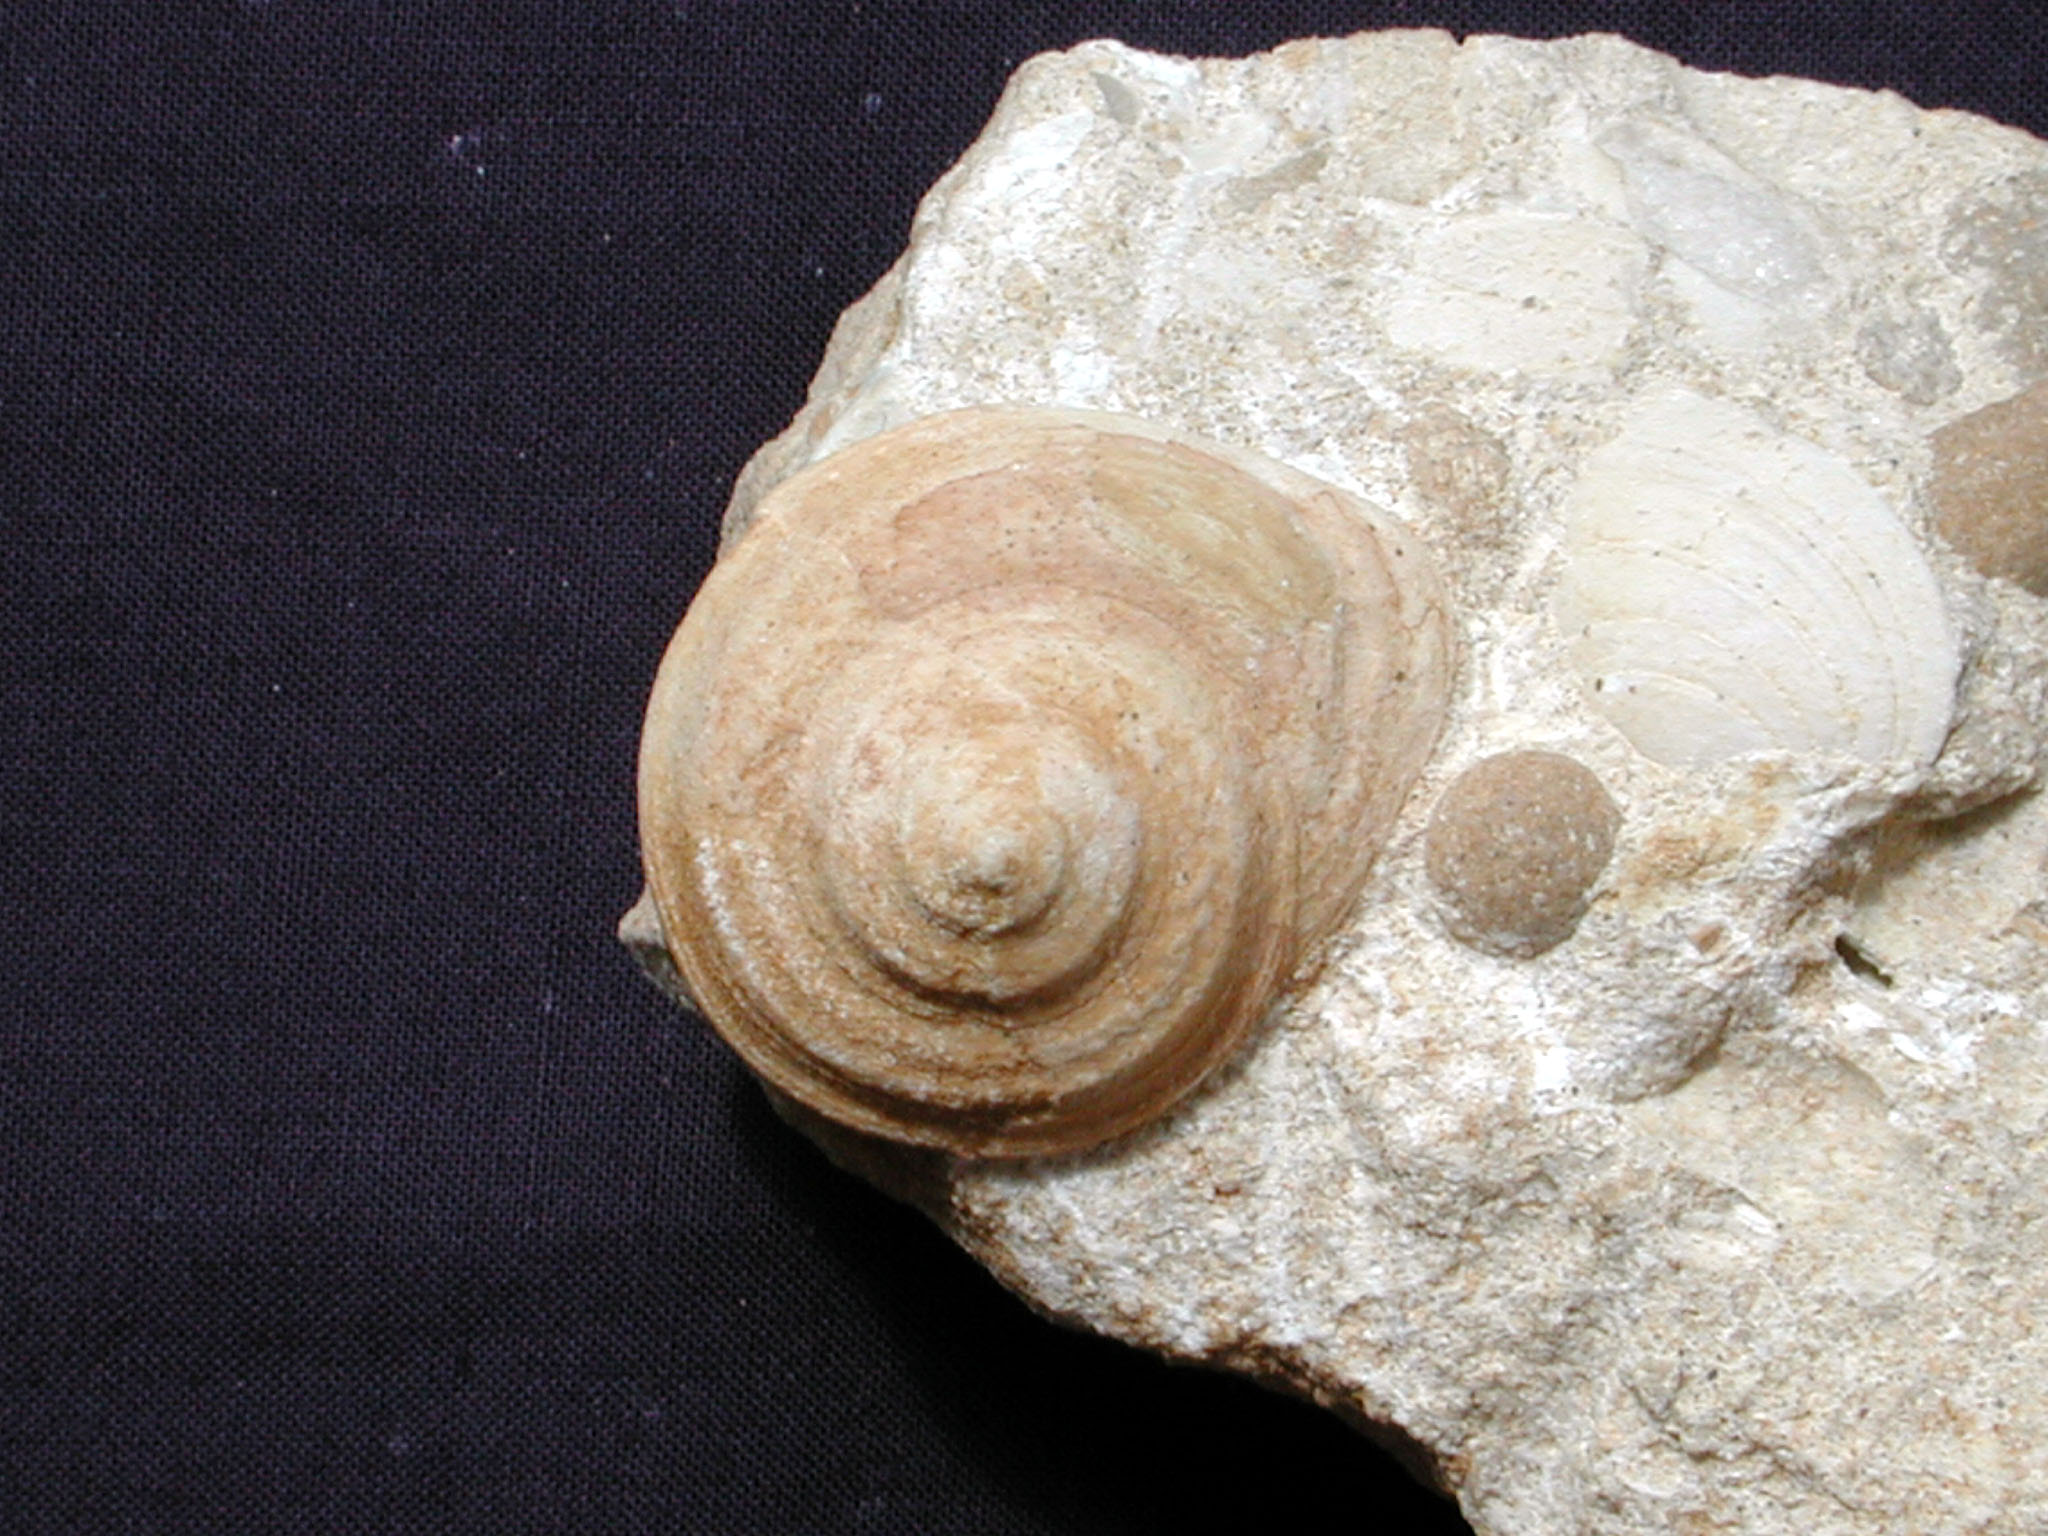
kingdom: Animalia
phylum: Mollusca
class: Gastropoda
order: Pleurotomariida
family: Trochotomidae
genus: Trochotoma
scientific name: Trochotoma vetusta
